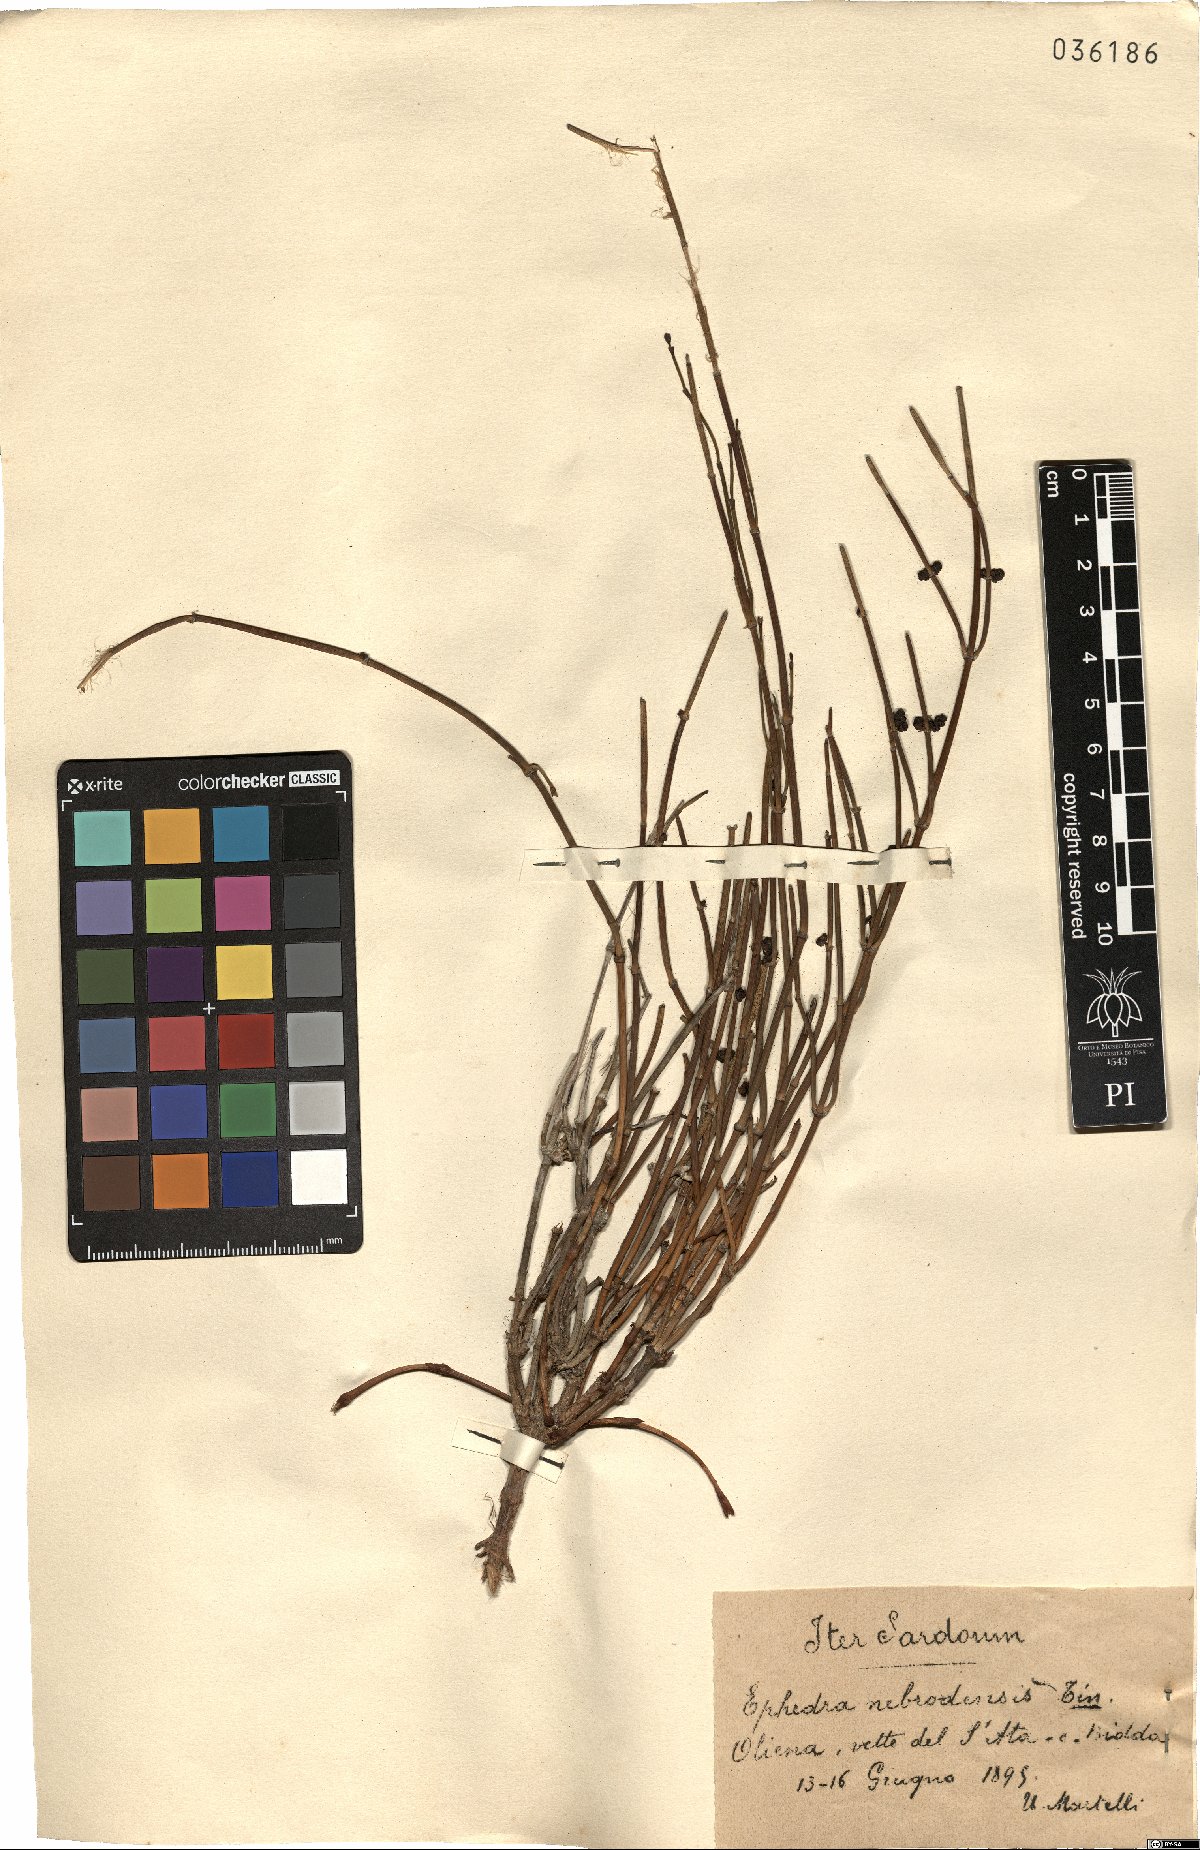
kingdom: Plantae
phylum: Tracheophyta
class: Gnetopsida
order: Ephedrales
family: Ephedraceae
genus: Ephedra
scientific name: Ephedra foeminea
